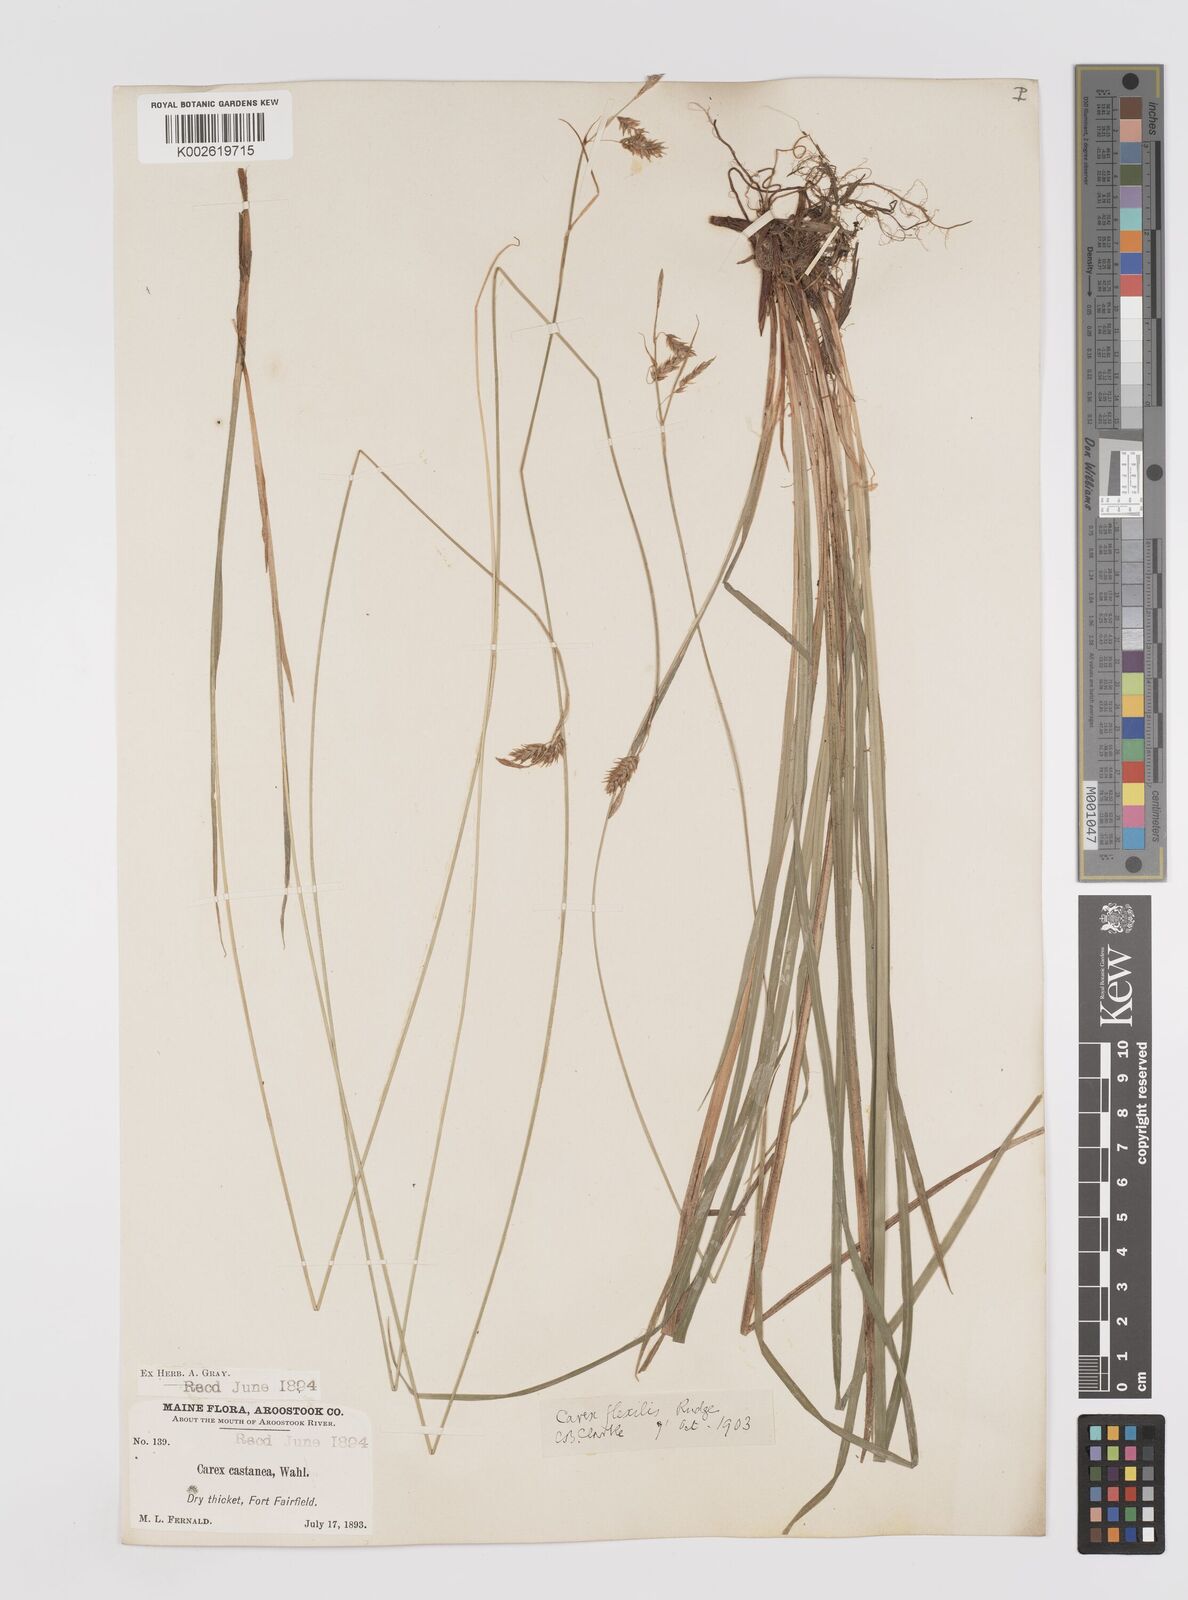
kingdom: Plantae
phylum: Tracheophyta
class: Liliopsida
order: Poales
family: Cyperaceae
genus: Carex
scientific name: Carex castanea
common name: Chestnut sedge
